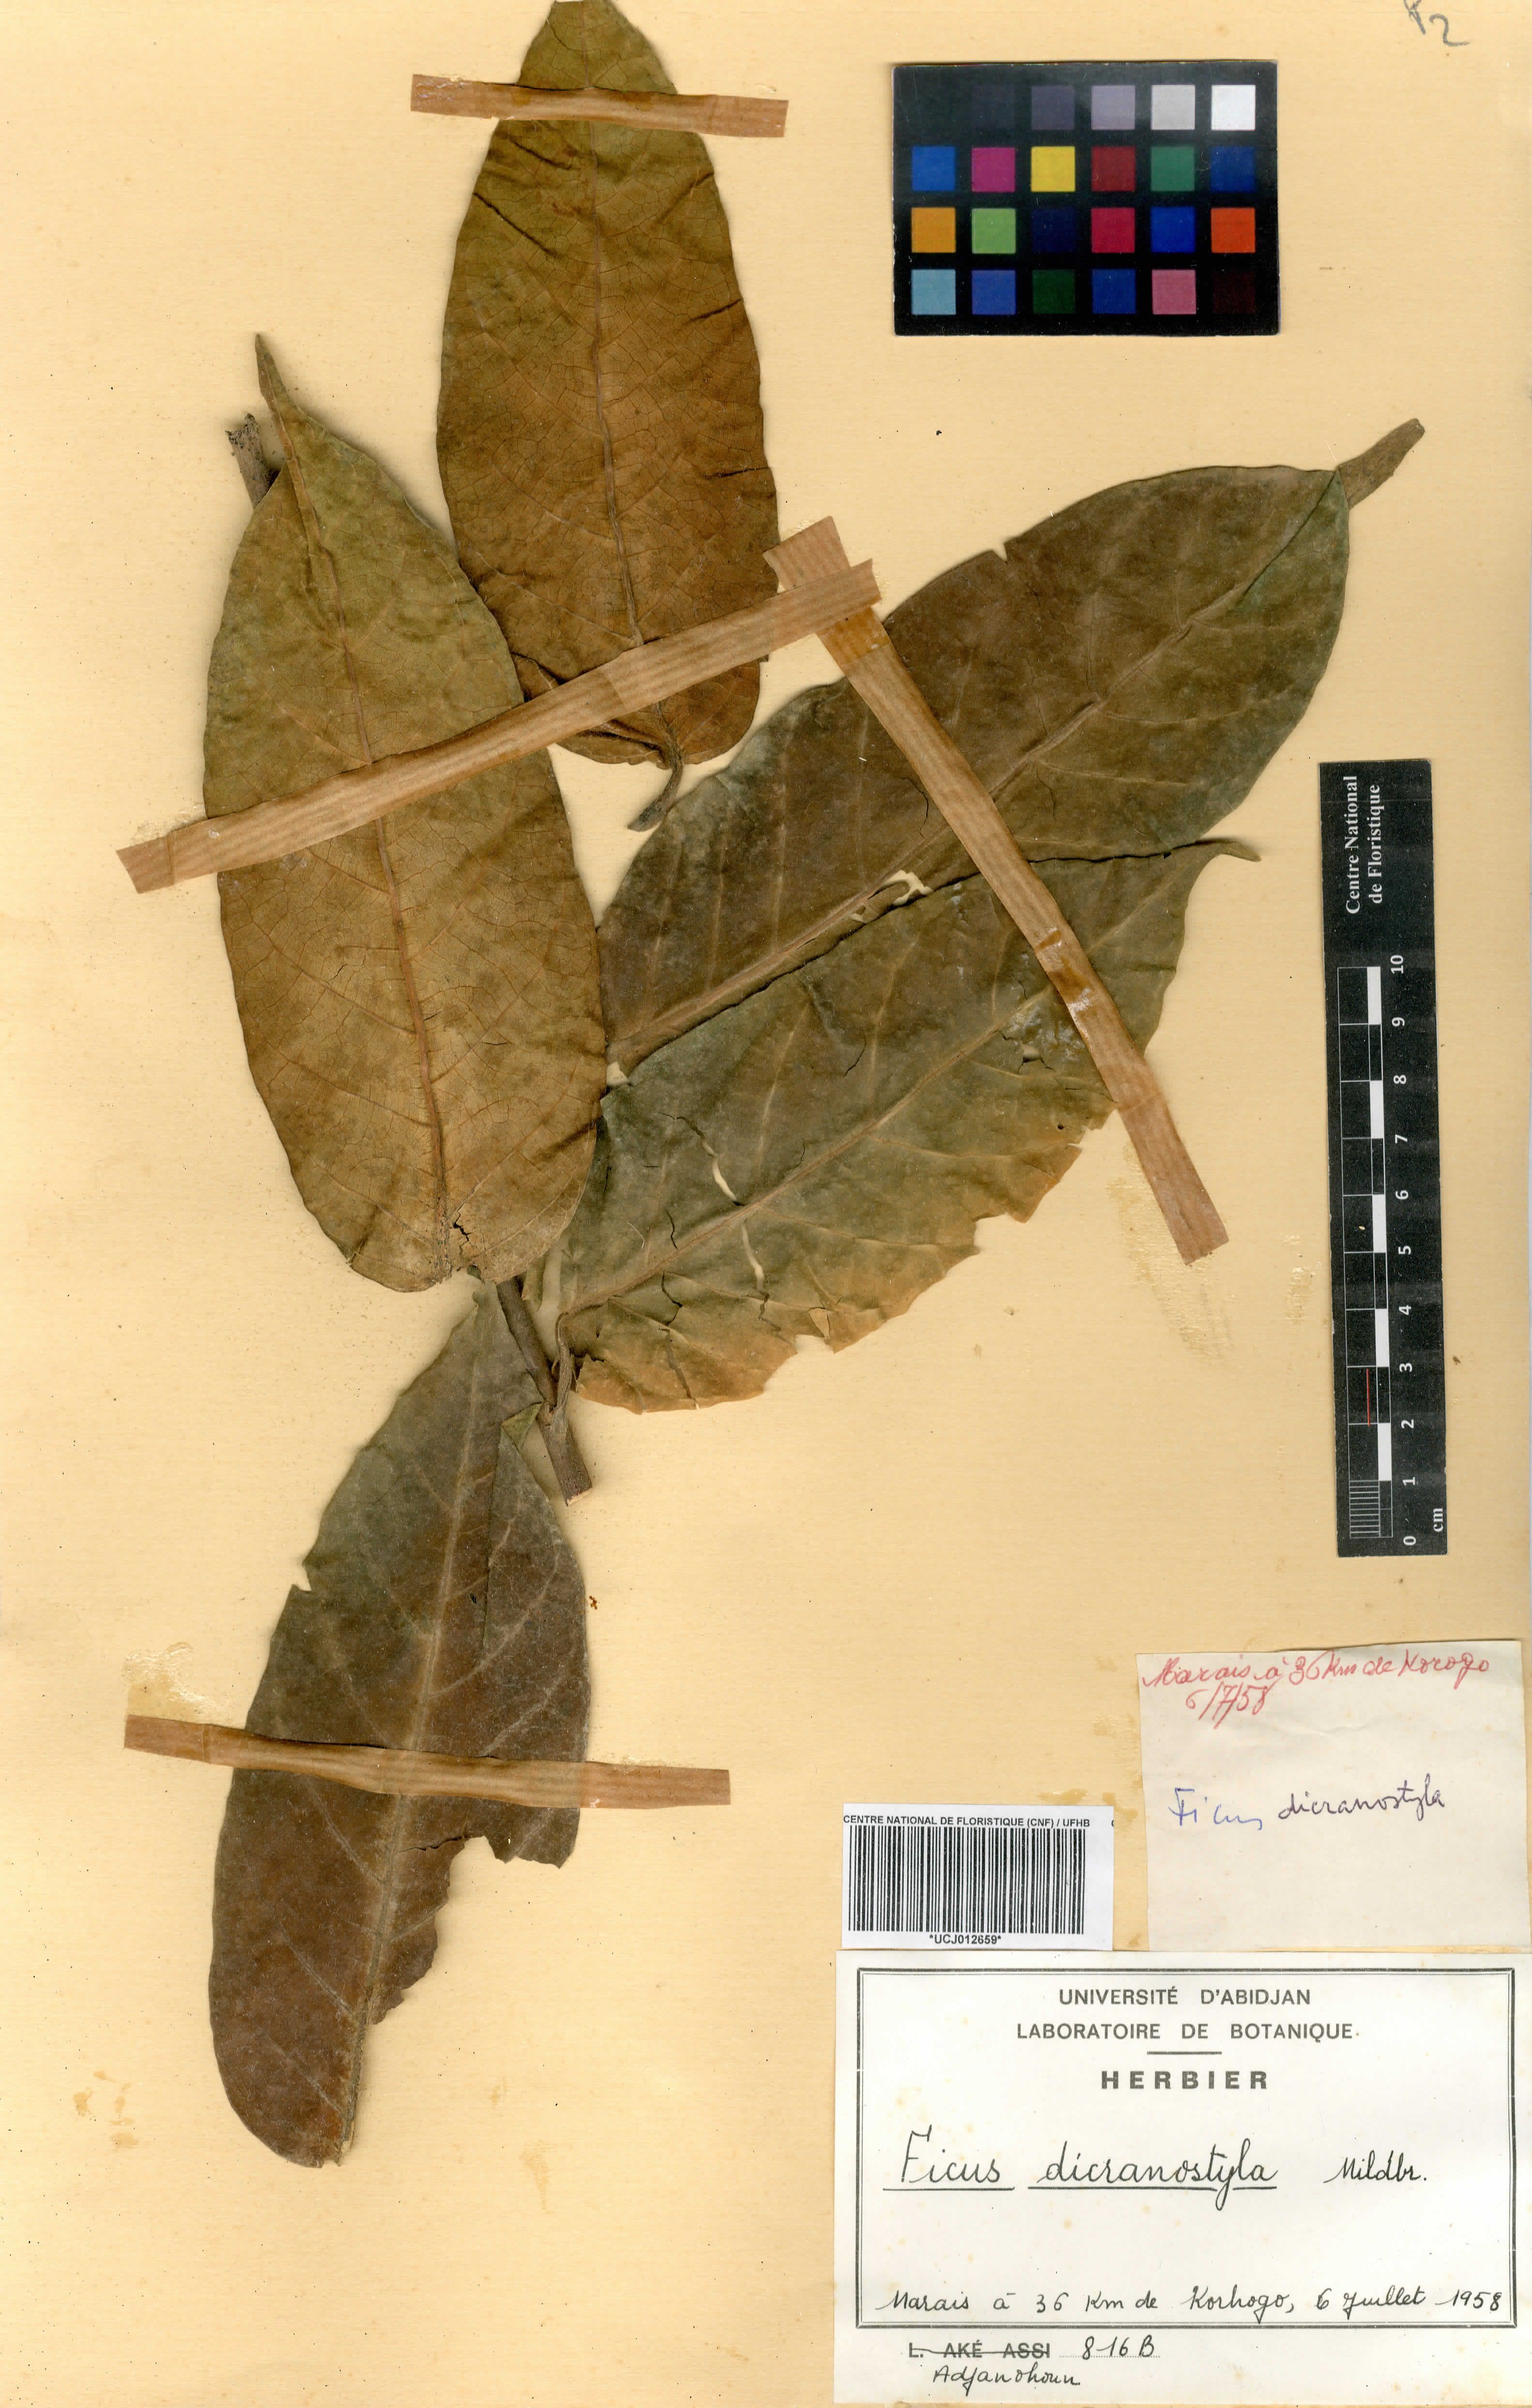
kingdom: Plantae
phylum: Tracheophyta
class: Magnoliopsida
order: Rosales
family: Moraceae
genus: Ficus
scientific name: Ficus dicranostyla
